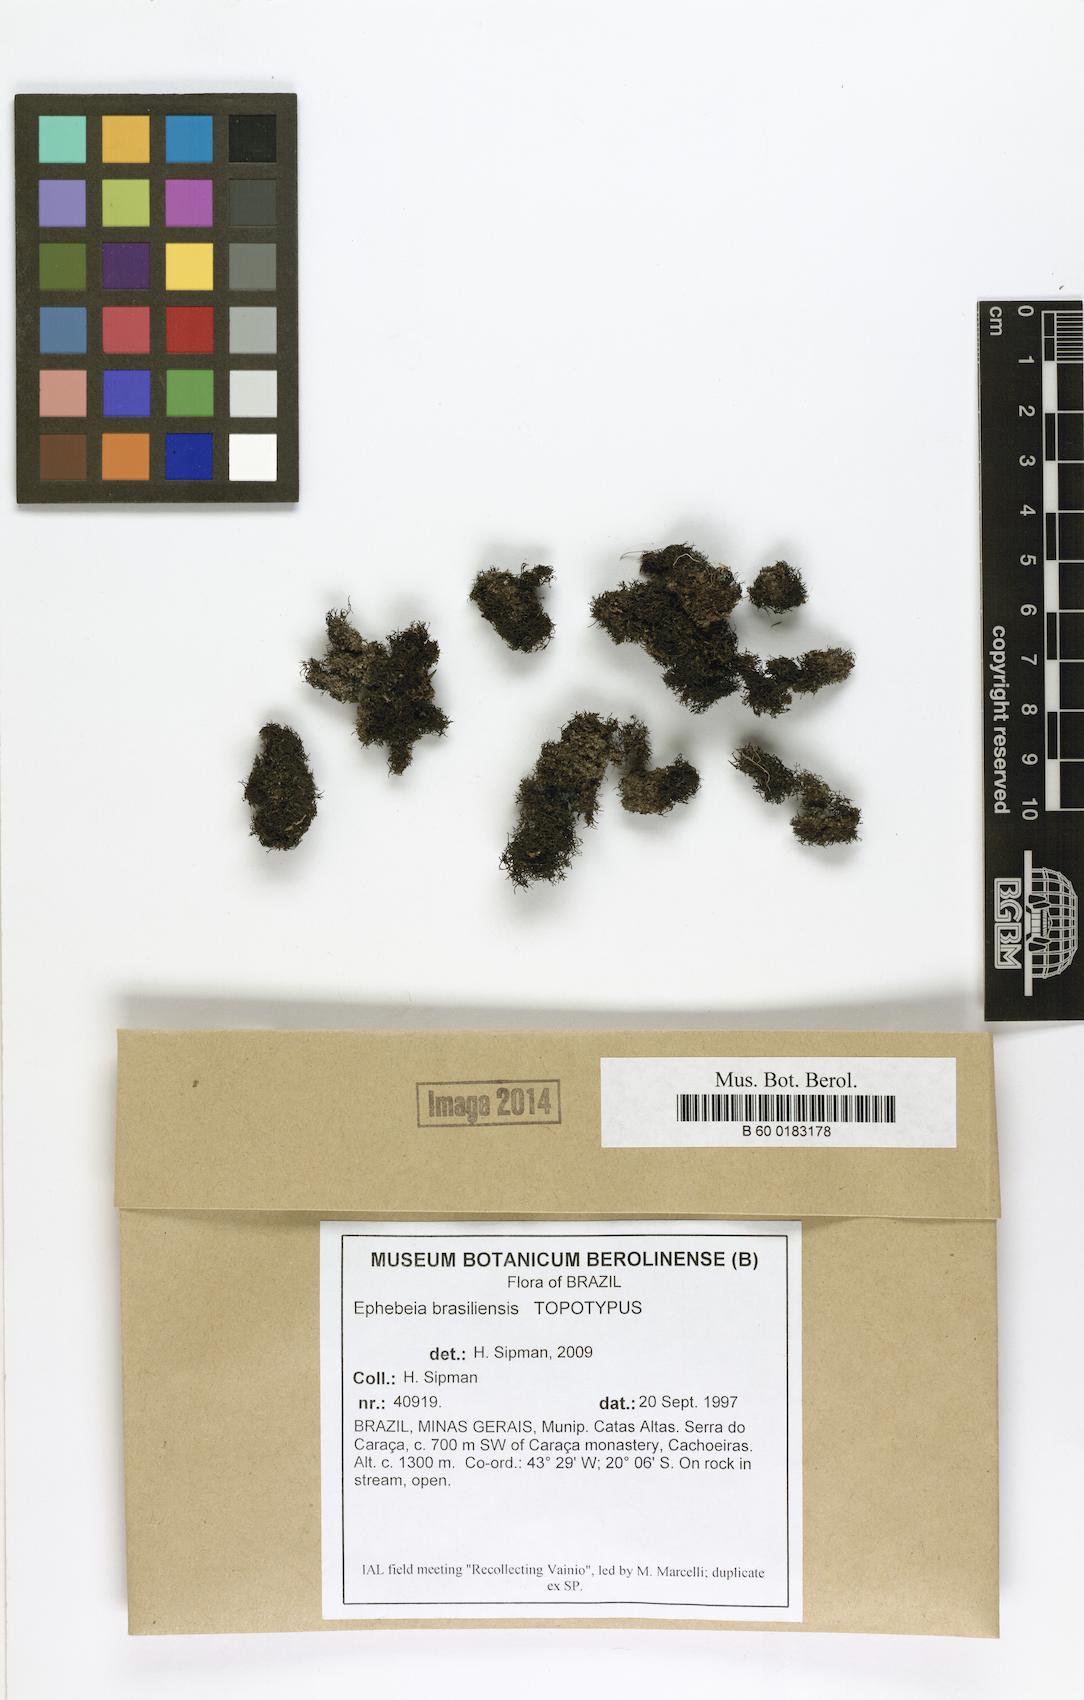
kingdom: Fungi
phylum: Ascomycota
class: Lichinomycetes
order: Lichinales
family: Lichinaceae
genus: Ephebe
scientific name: Ephebe
